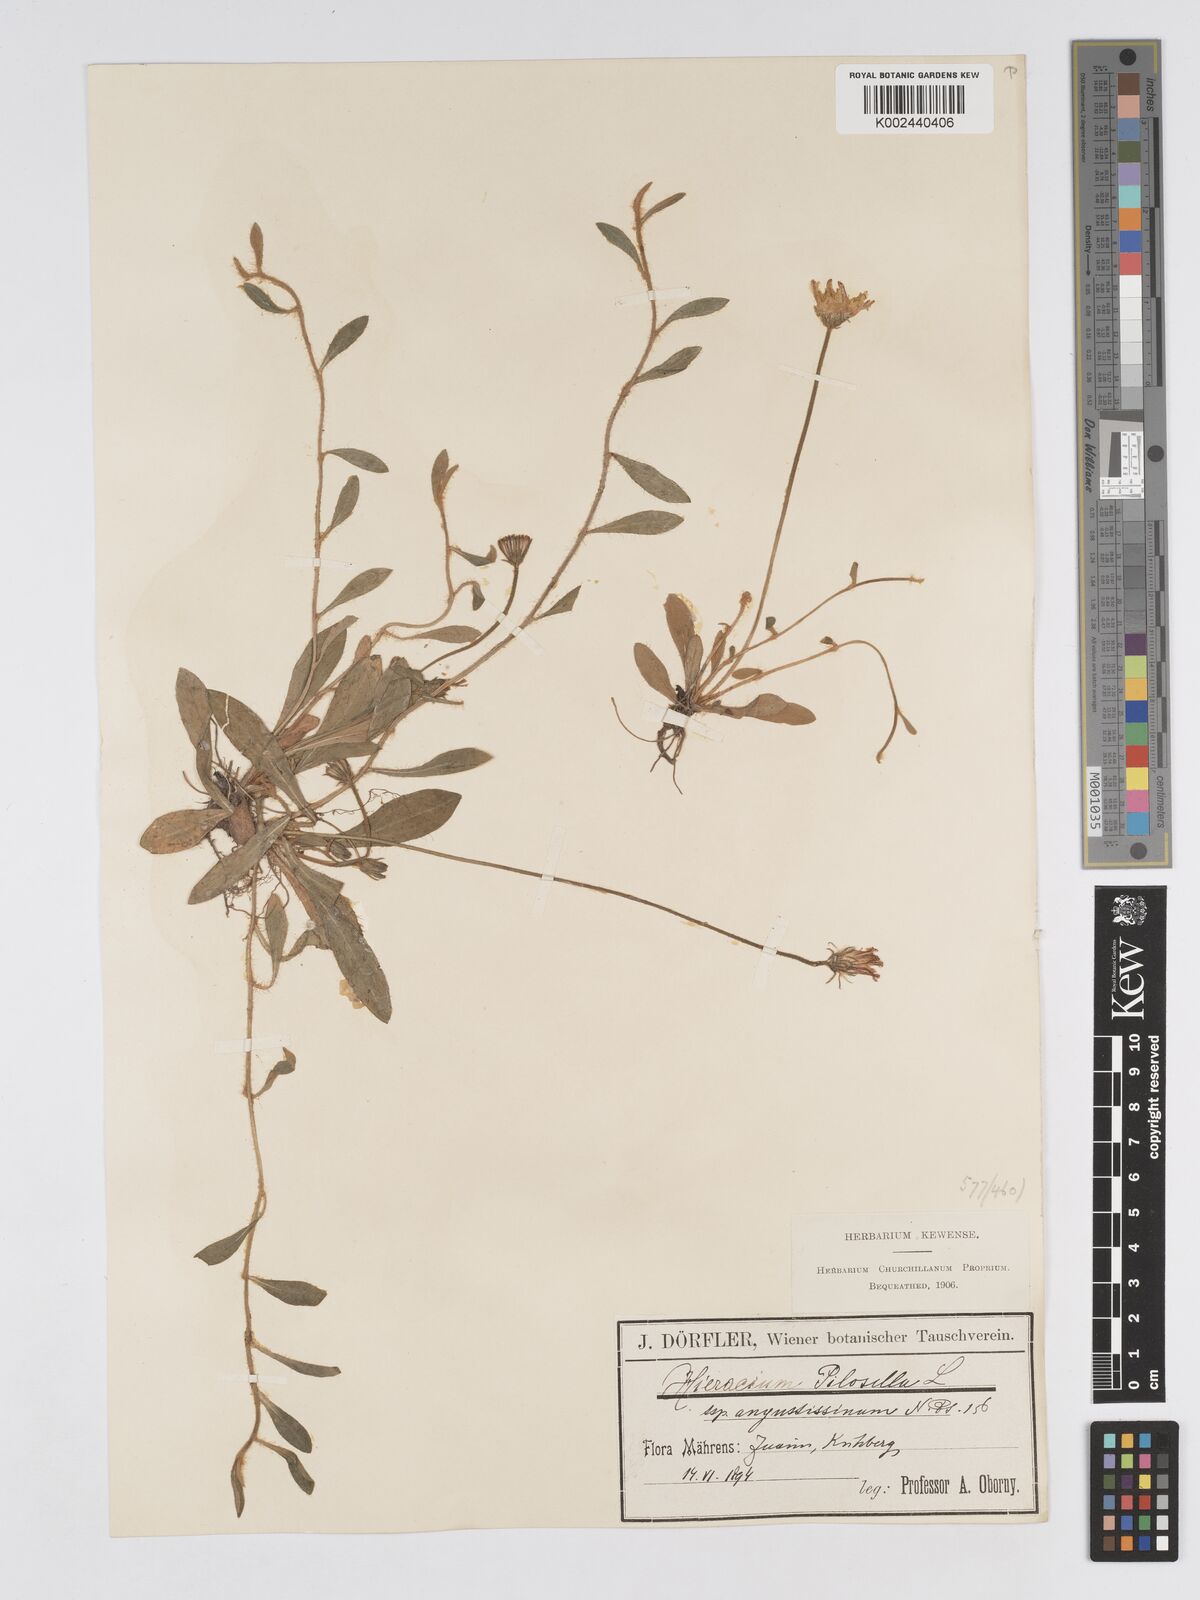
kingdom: Plantae
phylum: Tracheophyta
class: Magnoliopsida
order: Asterales
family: Asteraceae
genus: Pilosella
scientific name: Pilosella officinarum
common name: Mouse-ear hawkweed
